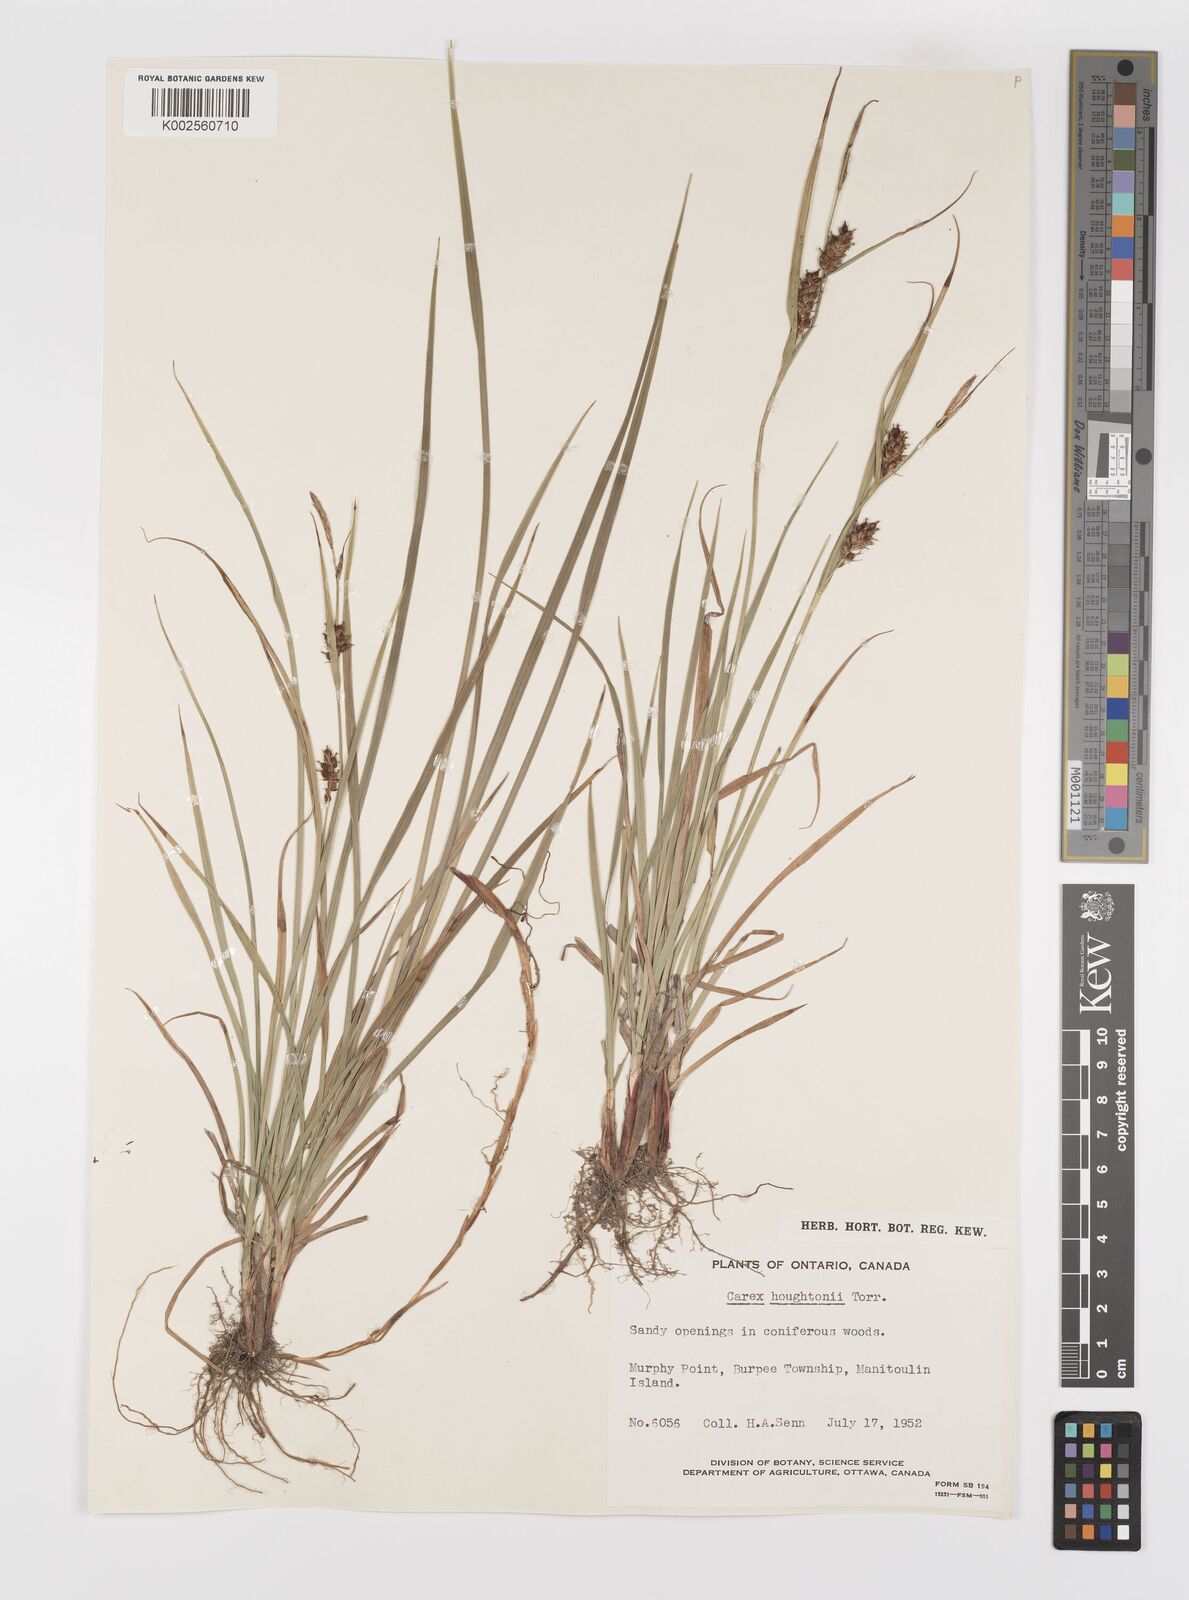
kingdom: Plantae
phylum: Tracheophyta
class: Liliopsida
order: Poales
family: Cyperaceae
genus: Carex
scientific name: Carex houghtoniana
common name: Houghton's sedge
